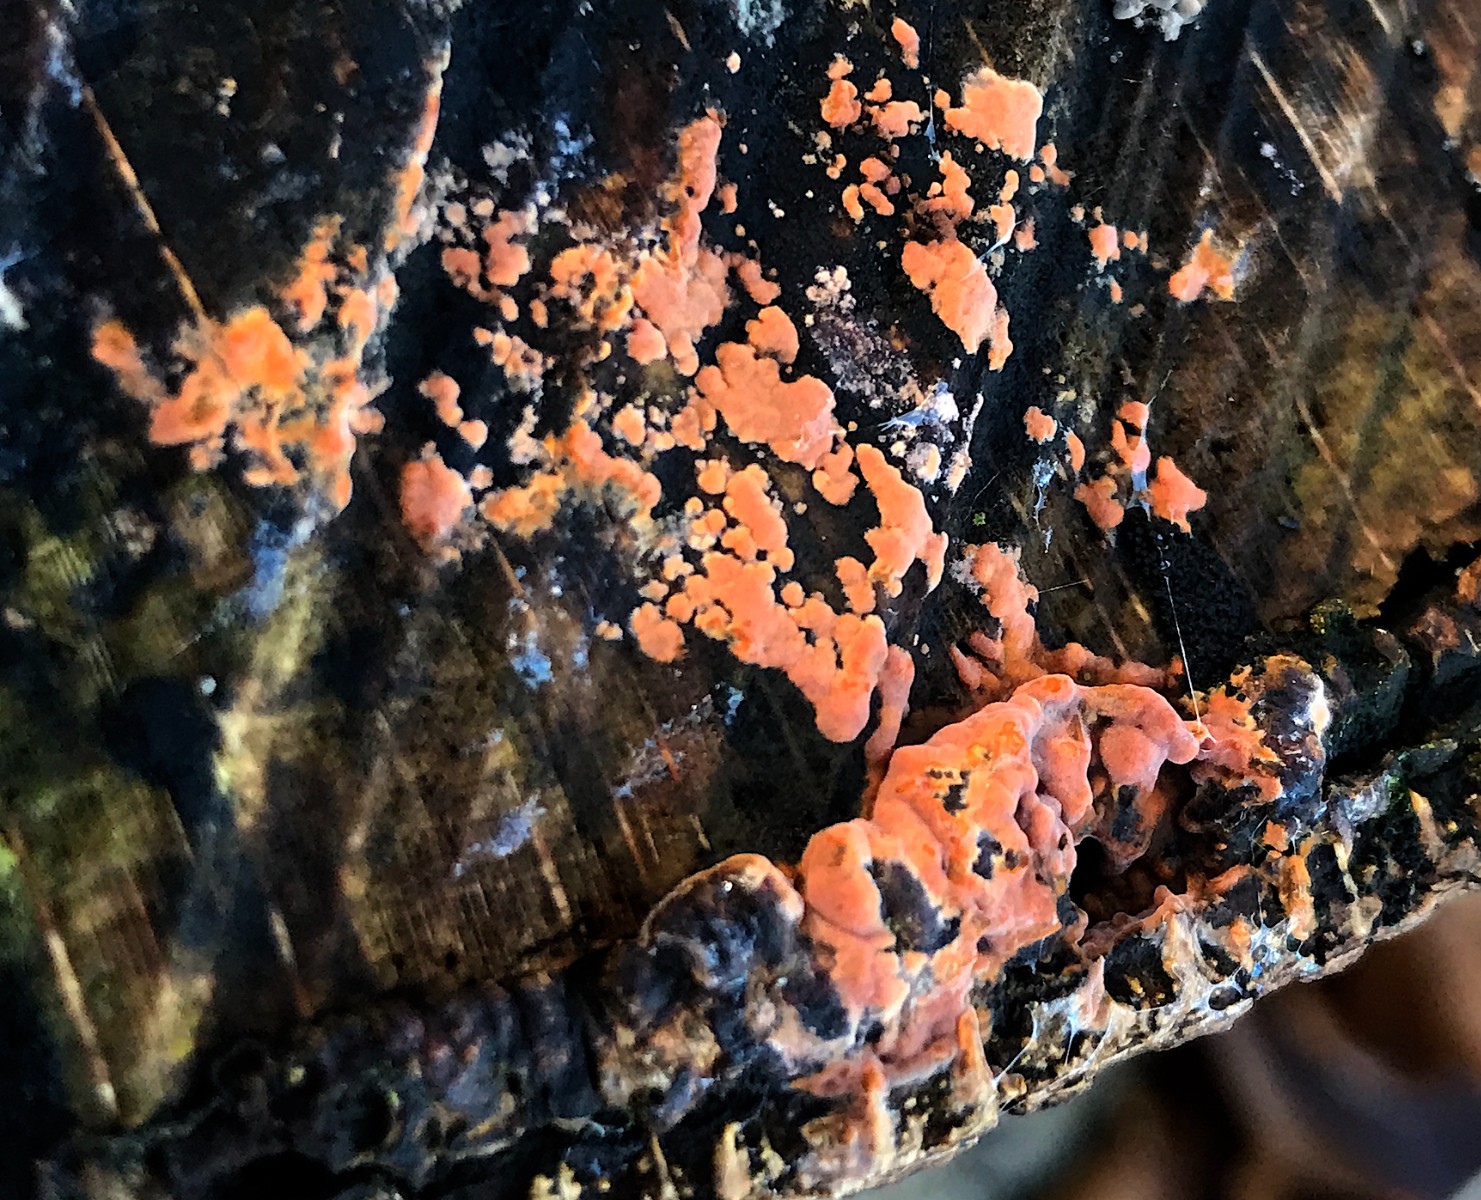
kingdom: Fungi
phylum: Basidiomycota
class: Agaricomycetes
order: Russulales
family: Peniophoraceae
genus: Peniophora
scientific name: Peniophora incarnata
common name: laksefarvet voksskind
